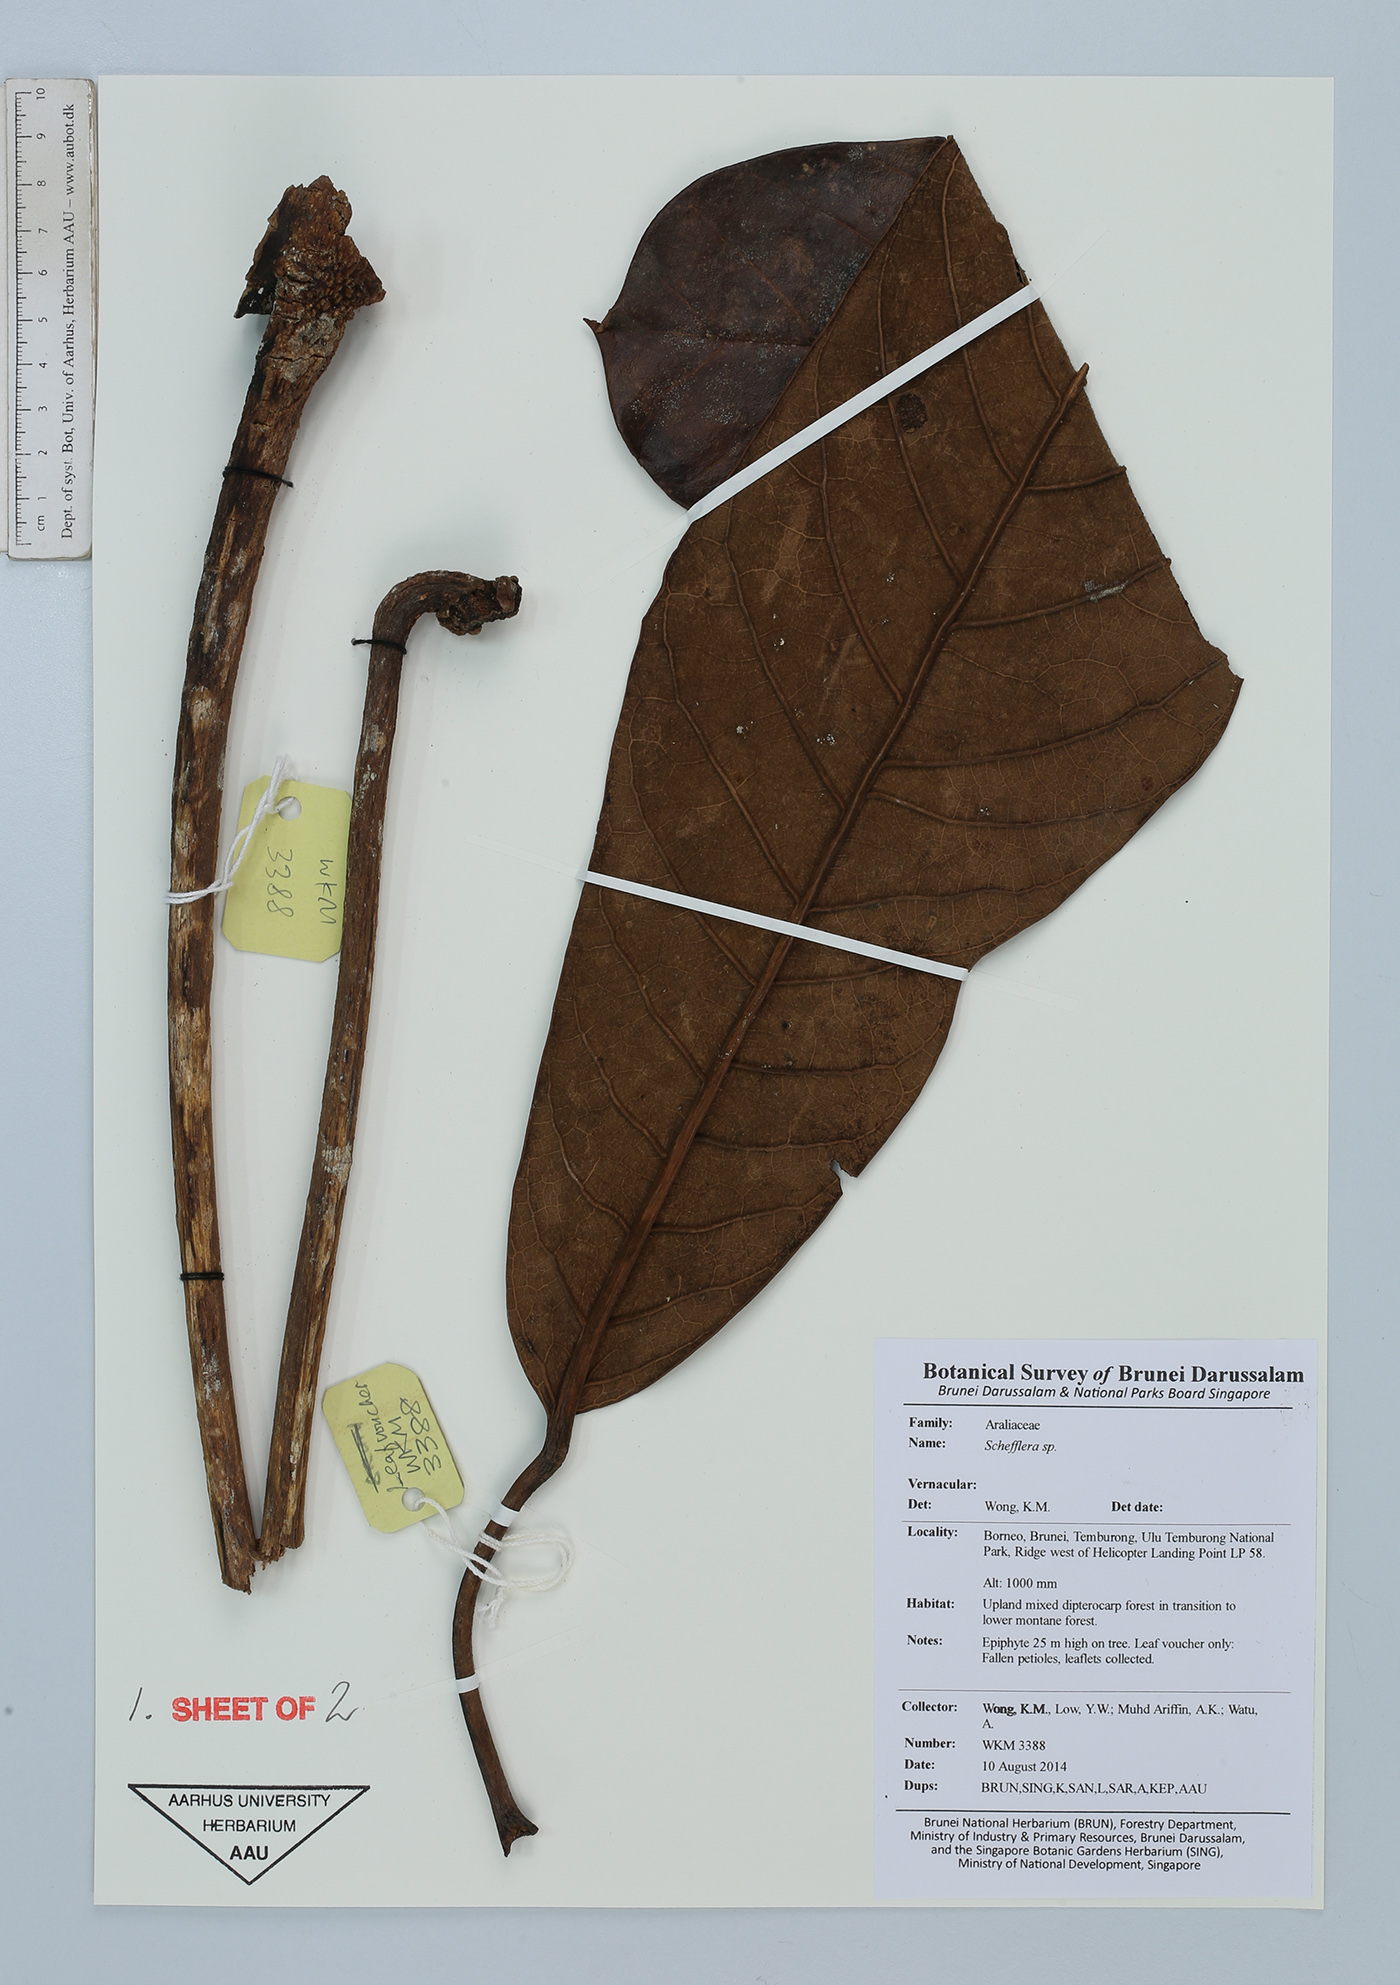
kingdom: Plantae
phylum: Tracheophyta
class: Magnoliopsida
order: Apiales
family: Araliaceae
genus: Schefflera
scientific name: Schefflera
